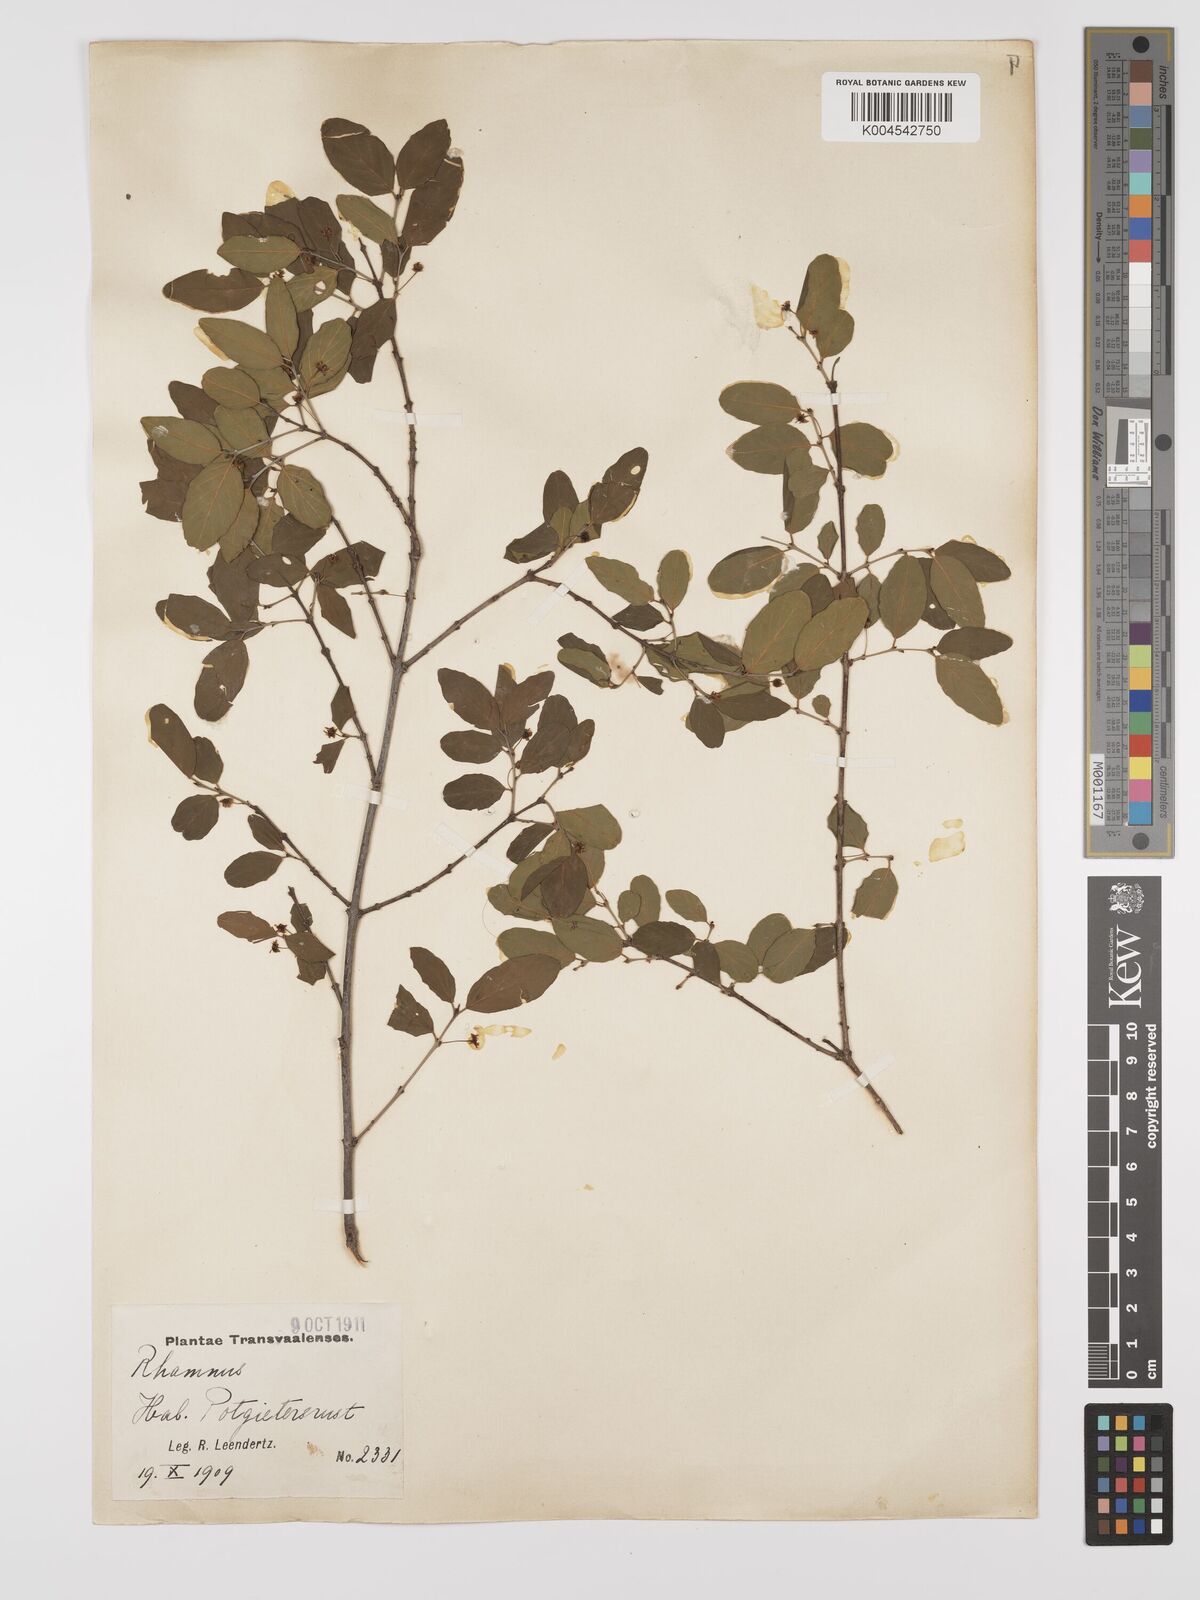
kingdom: Plantae
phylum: Tracheophyta
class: Magnoliopsida
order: Rosales
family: Rhamnaceae
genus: Phyllogeiton
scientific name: Phyllogeiton zeyheri
